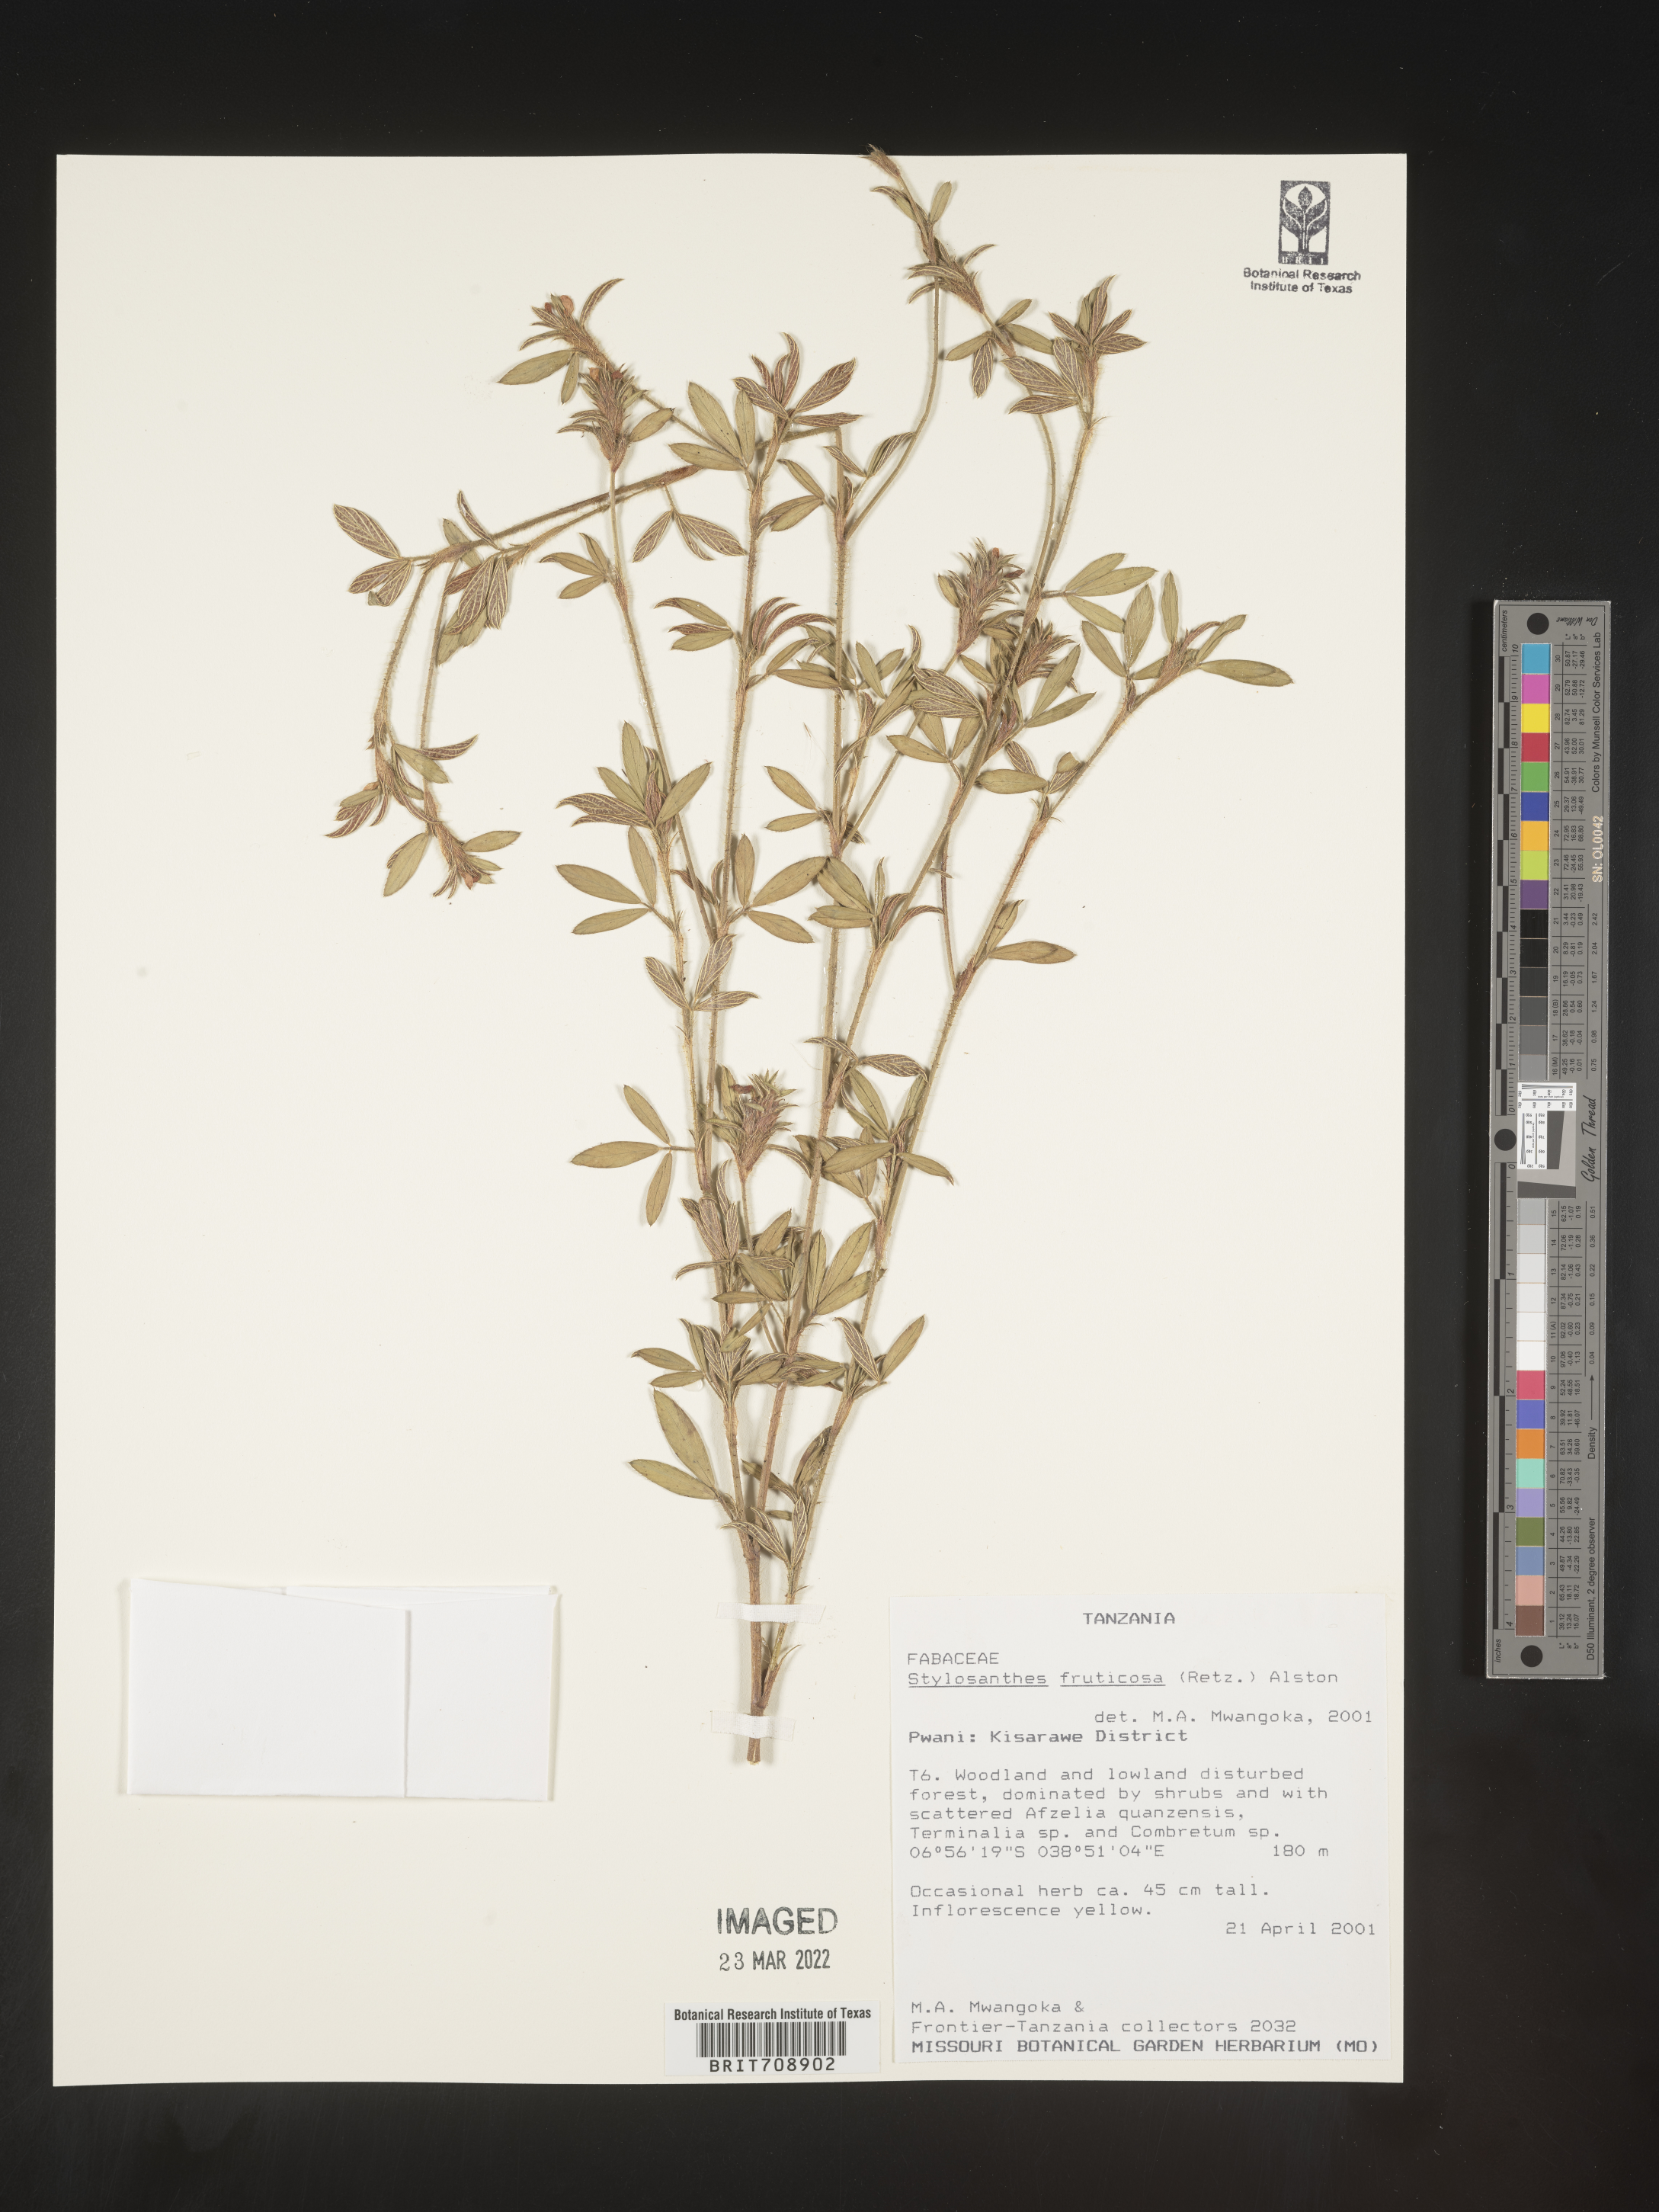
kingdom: Plantae
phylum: Tracheophyta
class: Magnoliopsida
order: Fabales
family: Fabaceae
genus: Stylosanthes
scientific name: Stylosanthes
